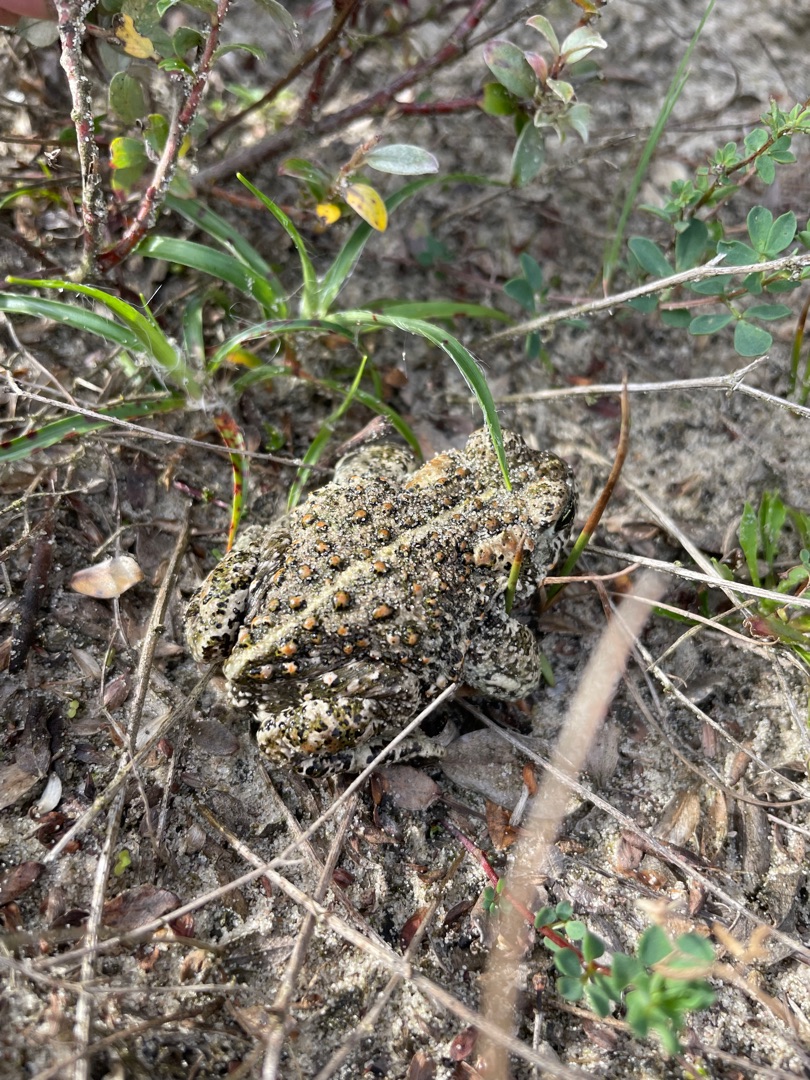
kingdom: Animalia
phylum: Chordata
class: Amphibia
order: Anura
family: Bufonidae
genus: Epidalea
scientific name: Epidalea calamita
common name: Strandtudse
